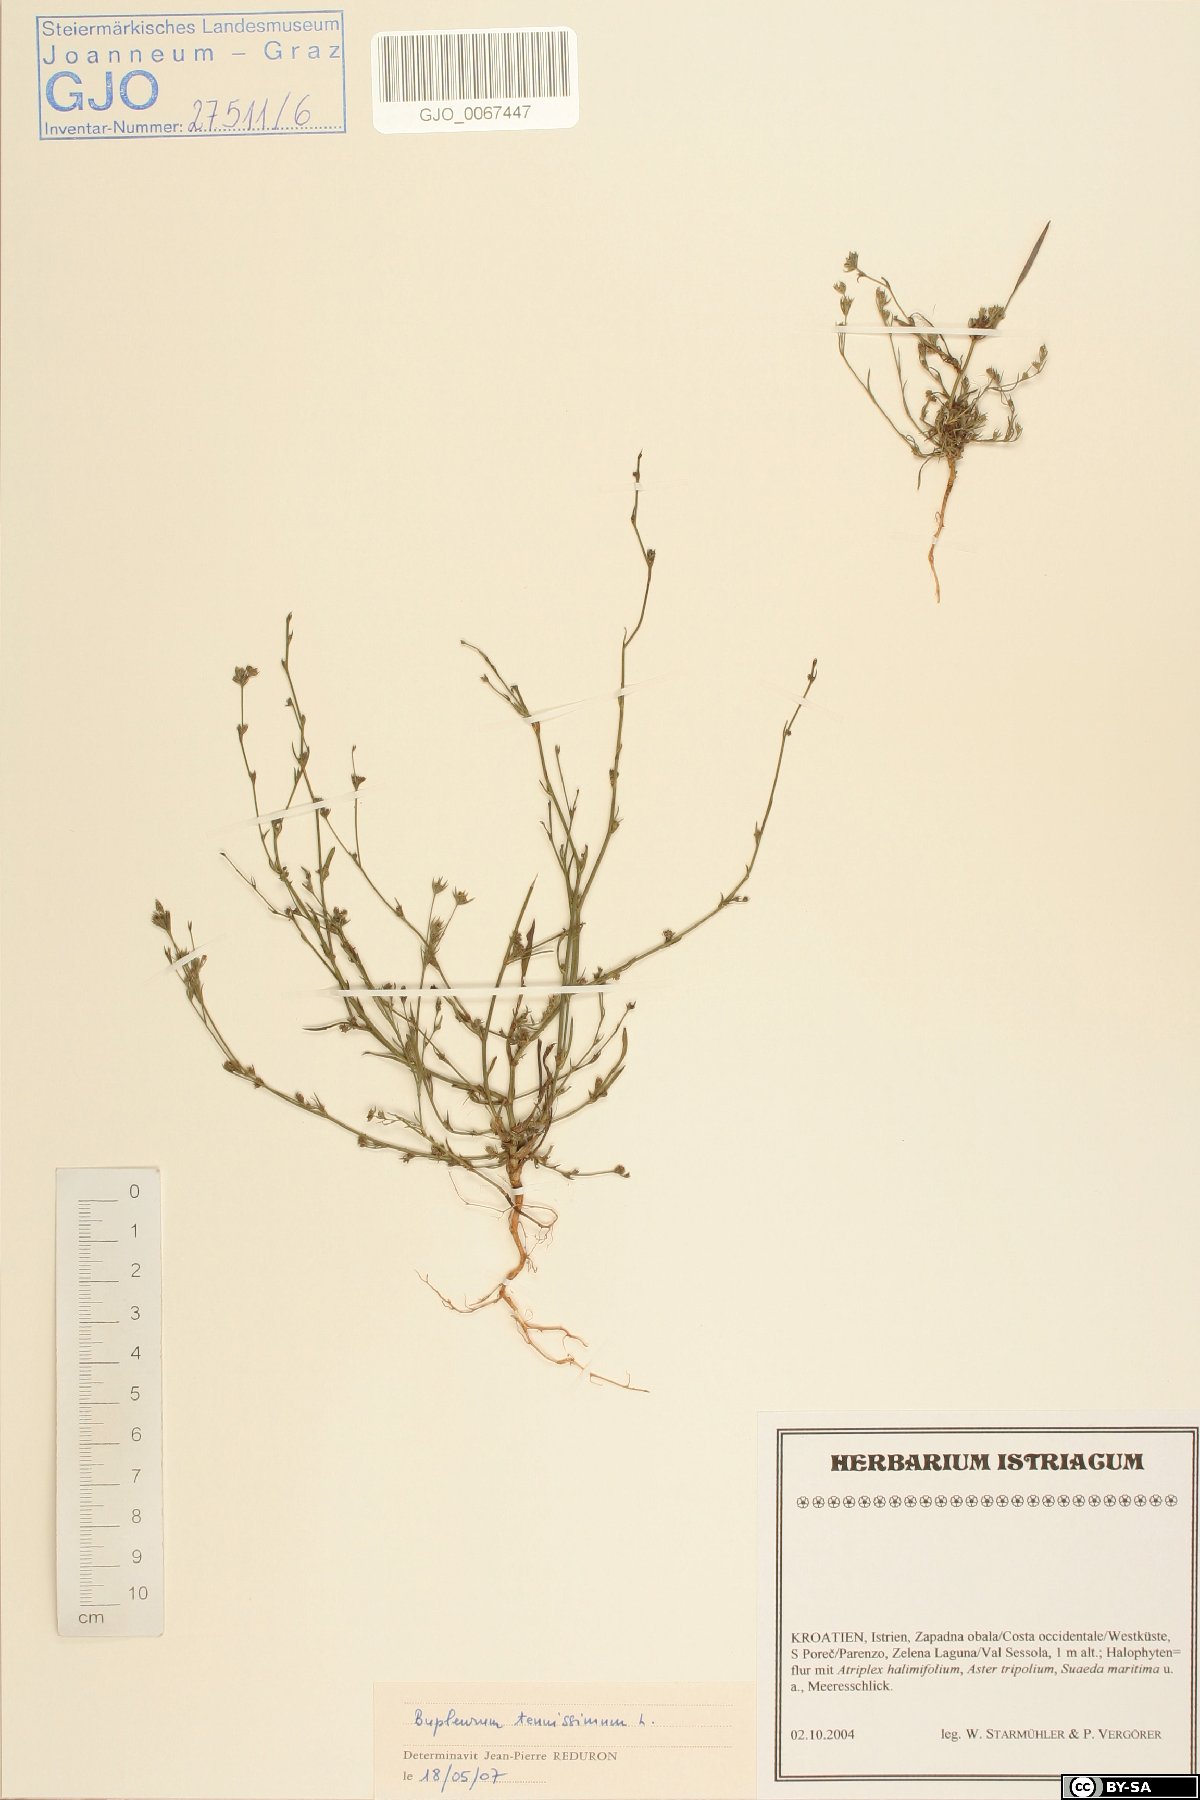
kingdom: Plantae
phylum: Tracheophyta
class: Magnoliopsida
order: Apiales
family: Apiaceae
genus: Bupleurum
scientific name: Bupleurum tenuissimum
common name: Slender hare's-ear
